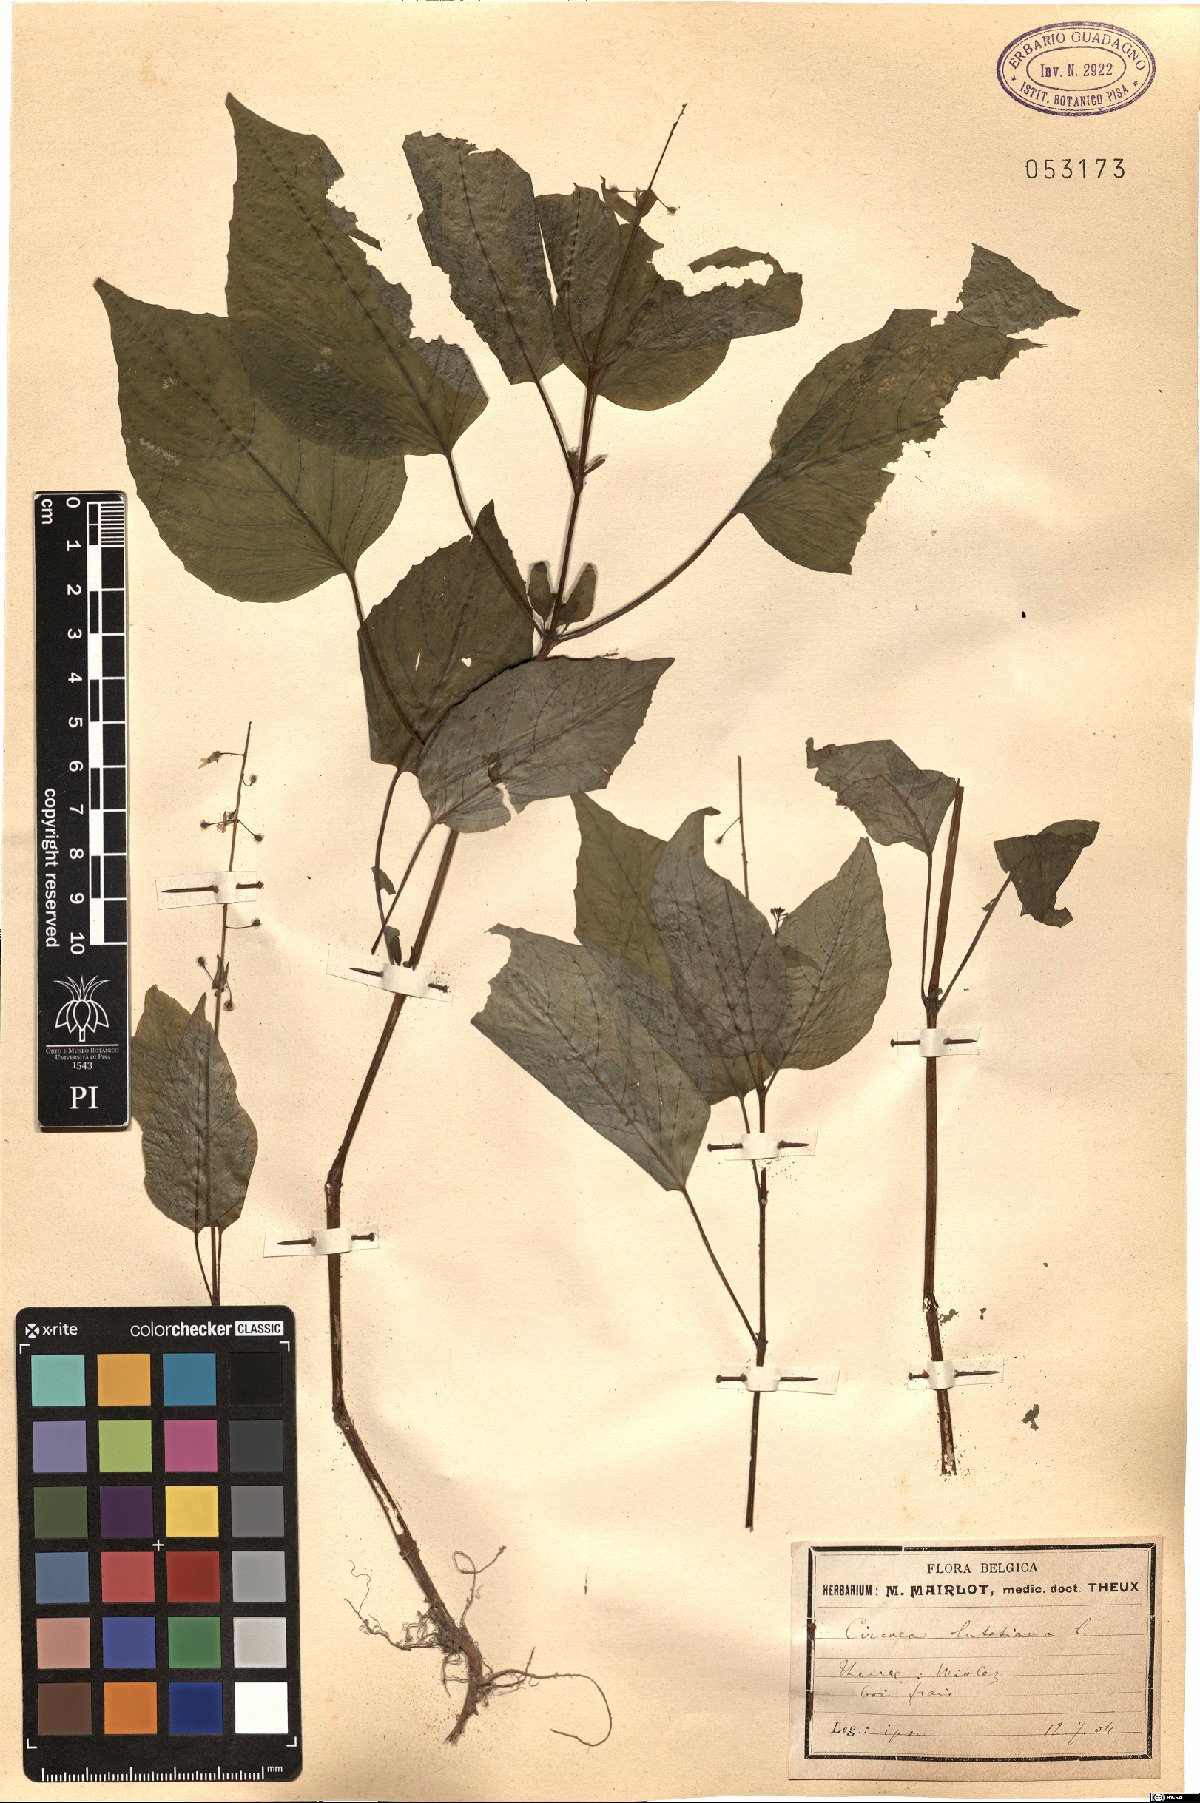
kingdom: Plantae
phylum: Tracheophyta
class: Magnoliopsida
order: Myrtales
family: Onagraceae
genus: Circaea
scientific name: Circaea lutetiana
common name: Enchanter's-nightshade
